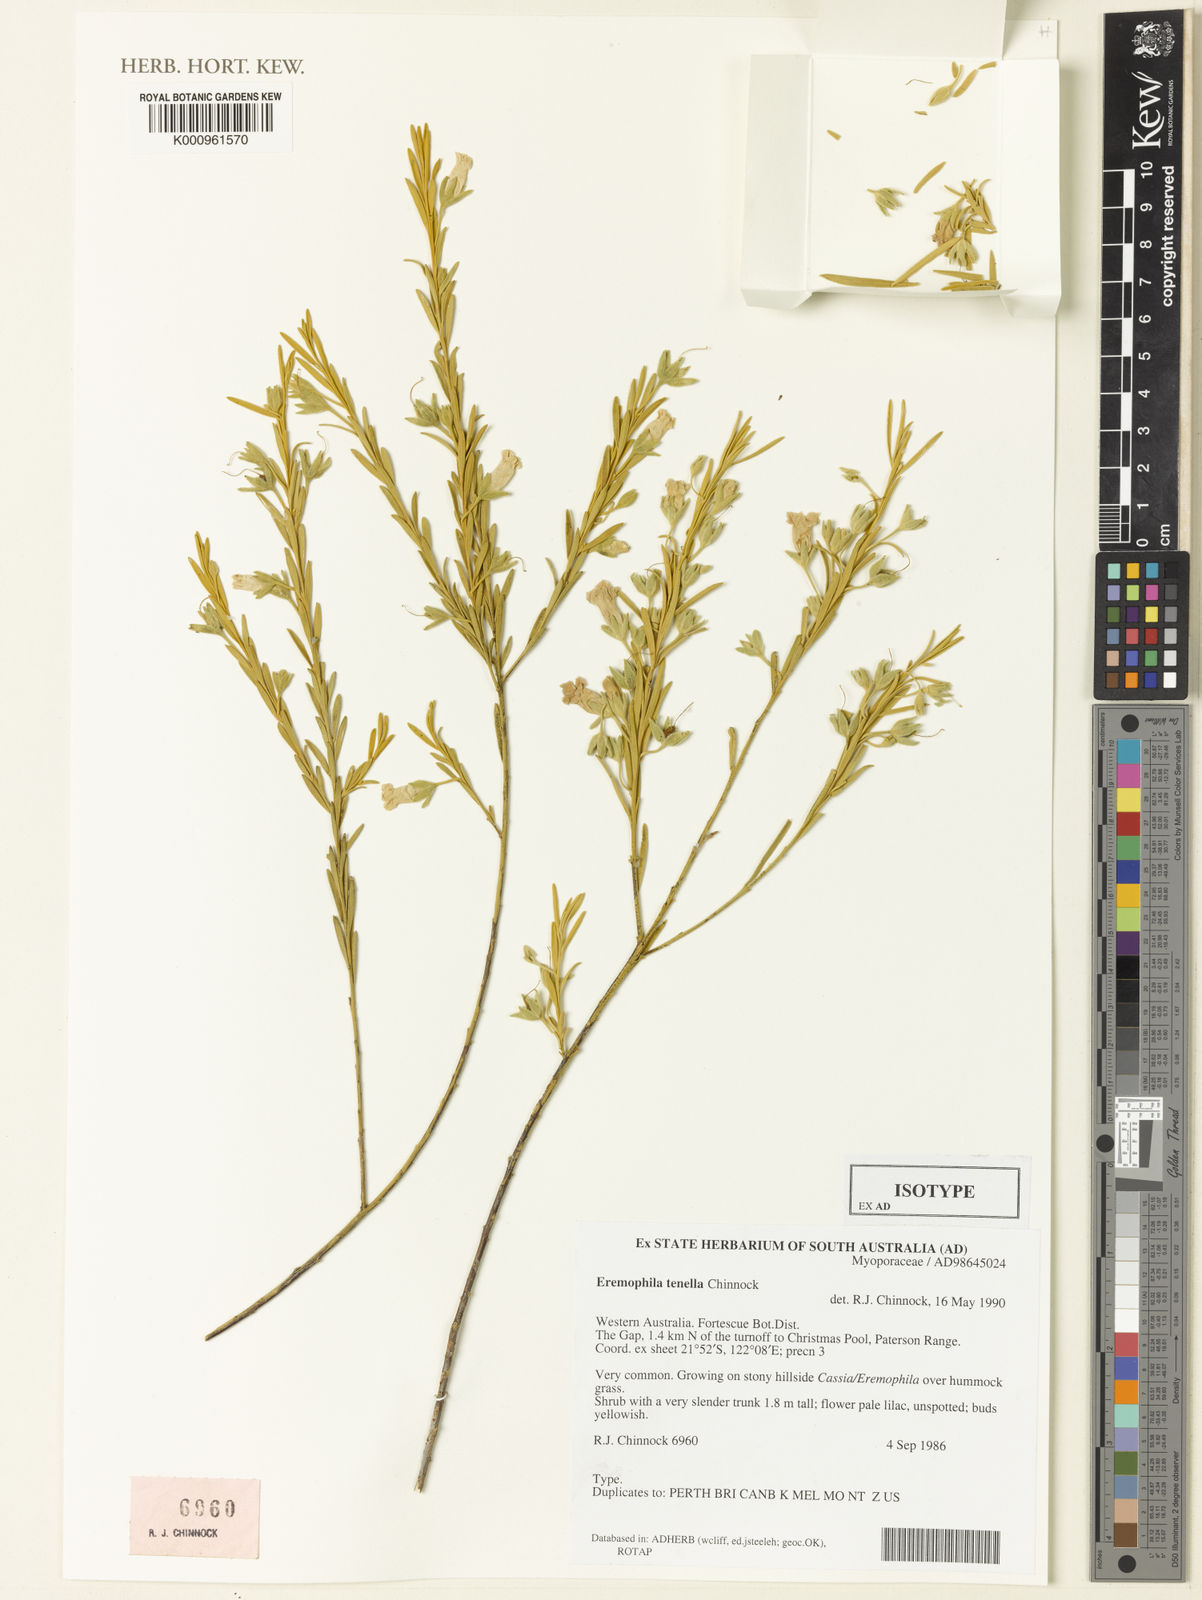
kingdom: Plantae
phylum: Tracheophyta
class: Magnoliopsida
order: Lamiales
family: Scrophulariaceae
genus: Eremophila
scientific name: Eremophila tenella
